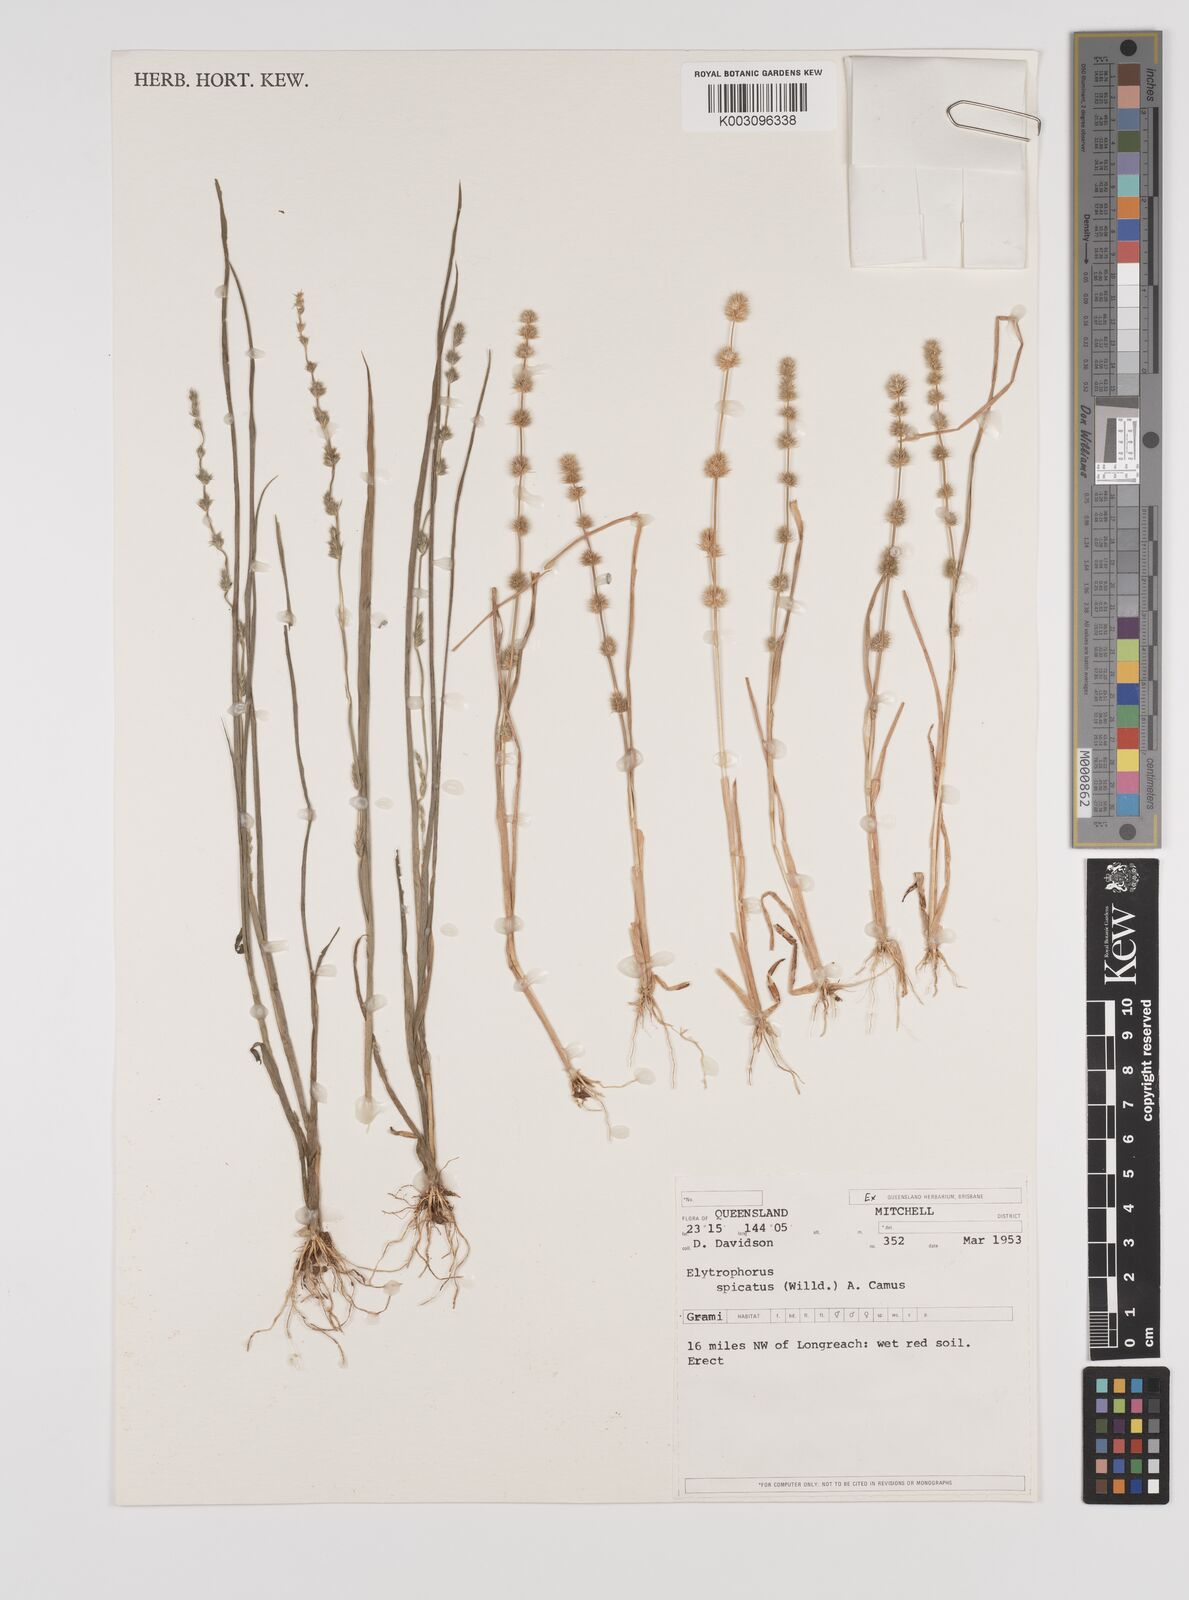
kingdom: Plantae
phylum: Tracheophyta
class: Liliopsida
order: Poales
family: Poaceae
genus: Elytrophorus
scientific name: Elytrophorus spicatus
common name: Spike grass
